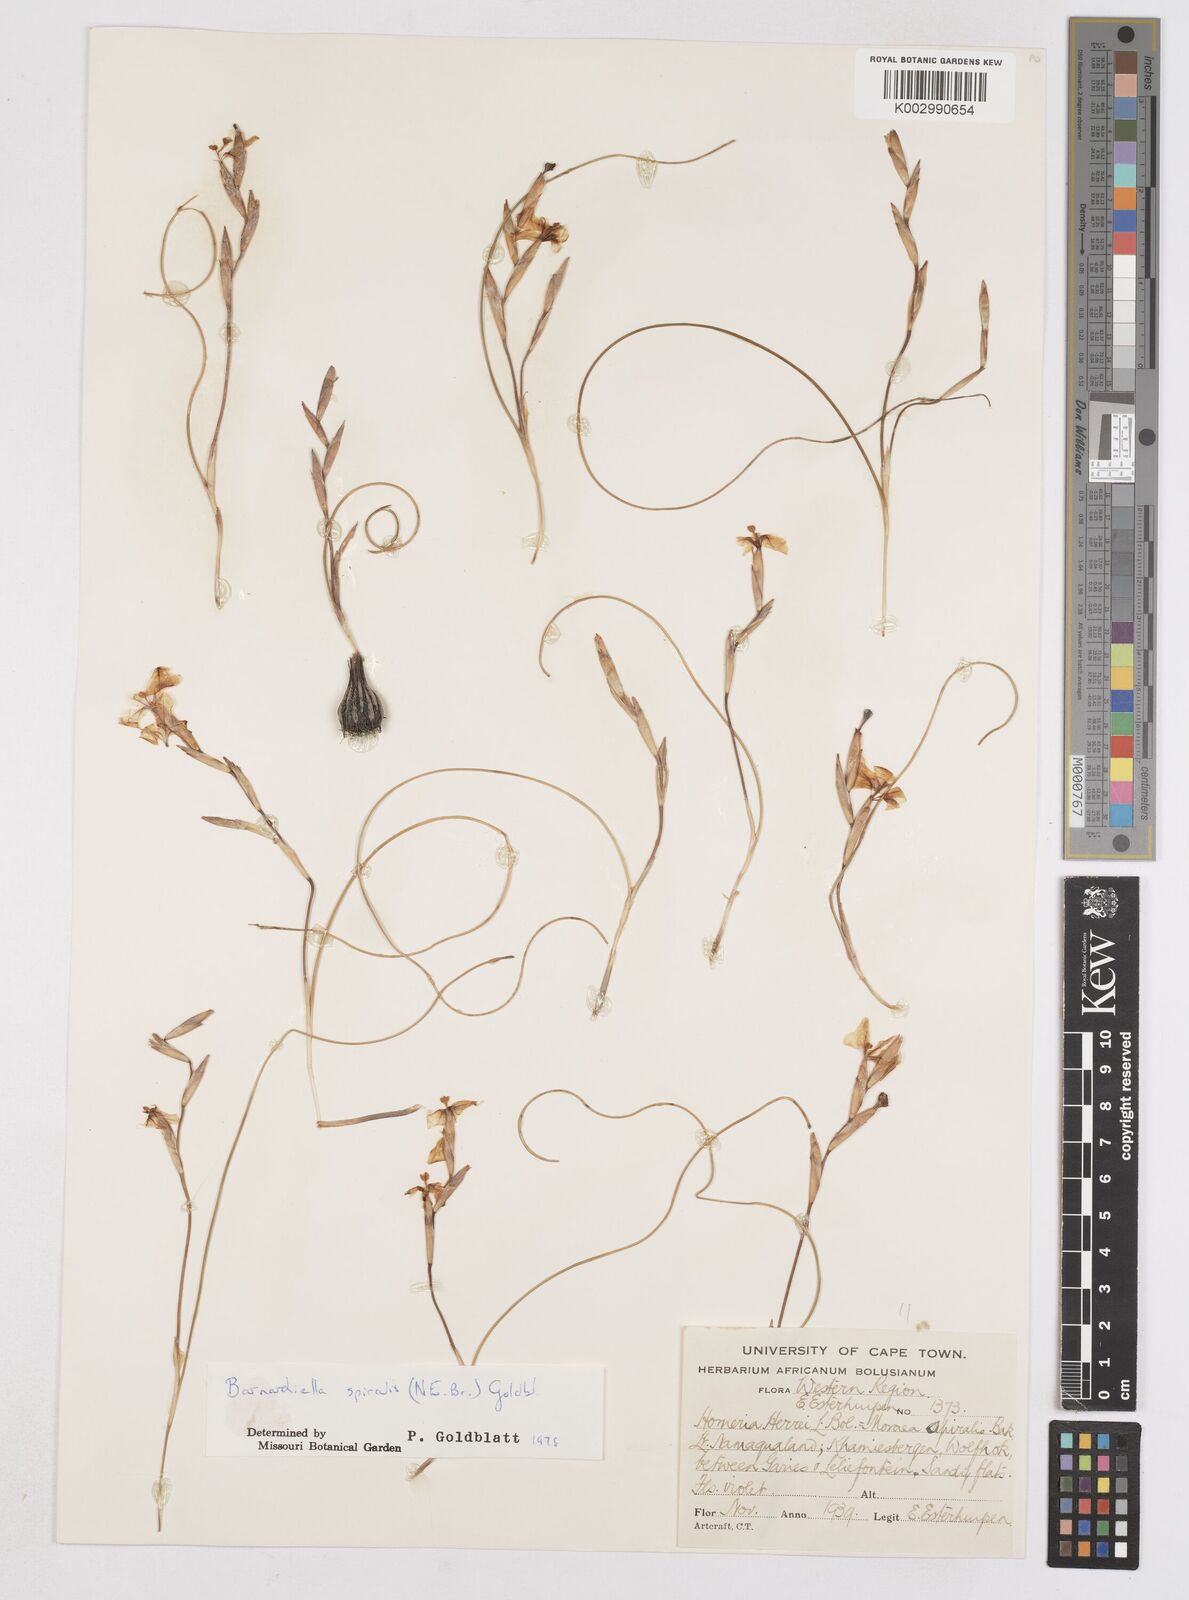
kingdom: Plantae
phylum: Tracheophyta
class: Liliopsida
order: Asparagales
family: Iridaceae
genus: Moraea
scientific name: Moraea
